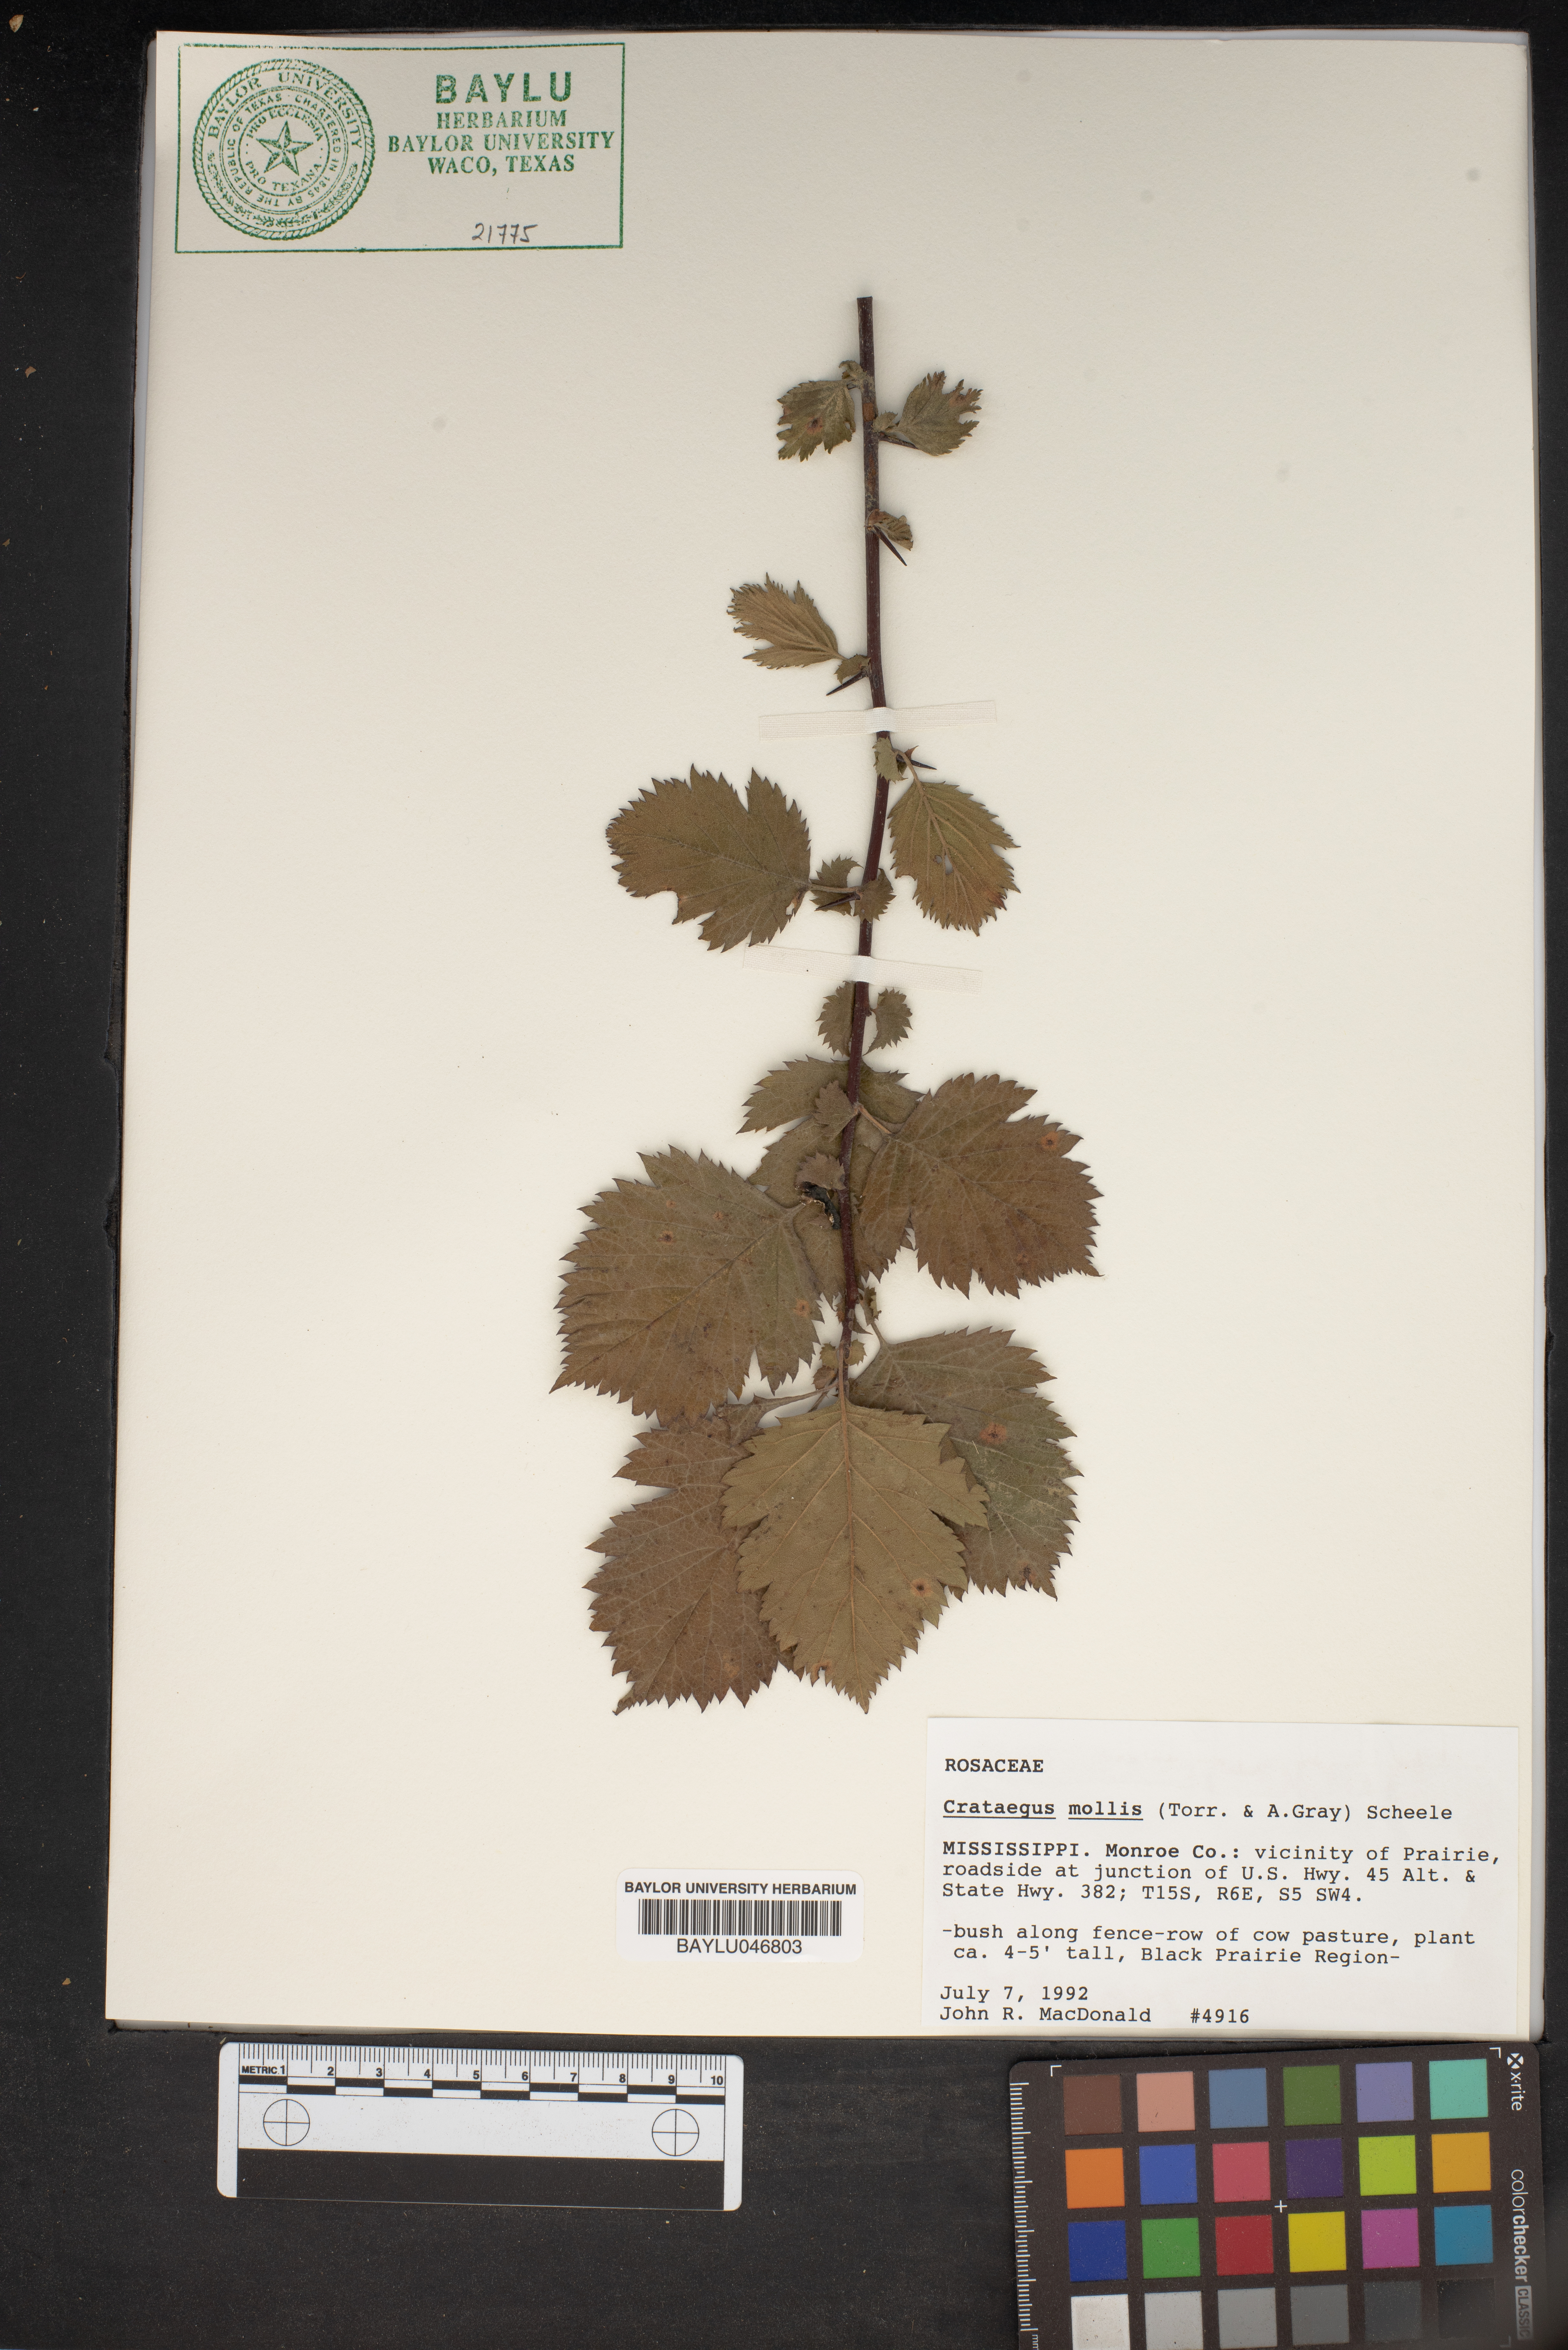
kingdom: Plantae
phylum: Tracheophyta
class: Magnoliopsida
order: Rosales
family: Rosaceae
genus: Crataegus
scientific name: Crataegus mollis
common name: Downy hawthorn
